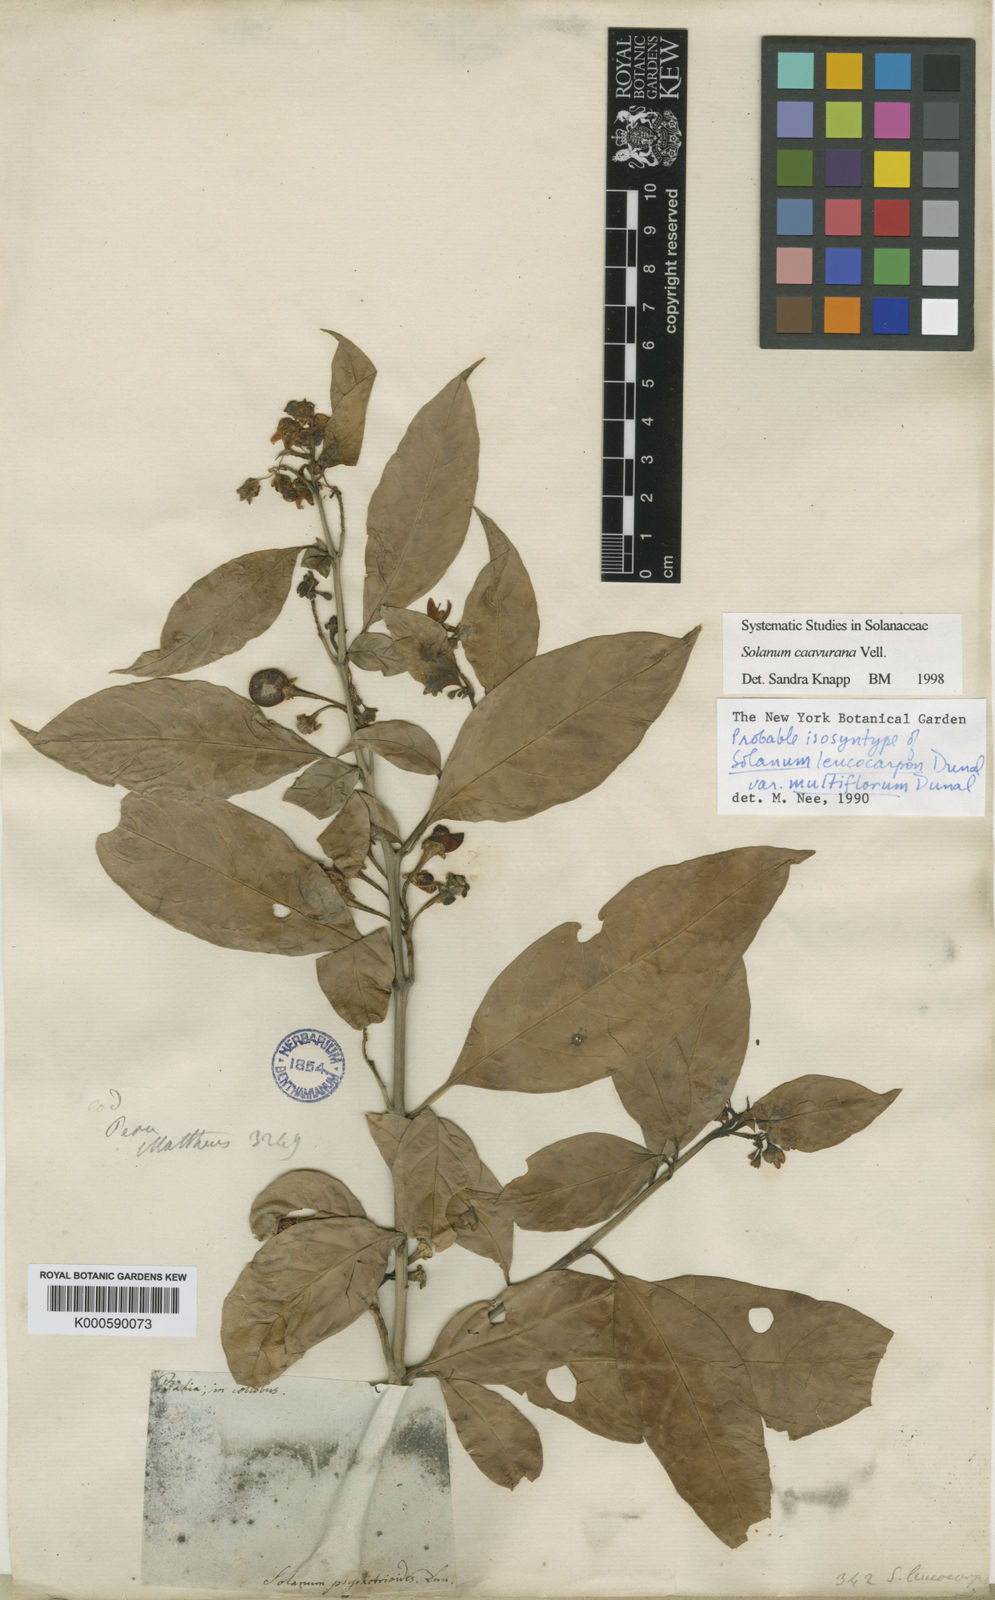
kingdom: Plantae
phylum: Tracheophyta
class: Magnoliopsida
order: Solanales
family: Solanaceae
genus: Solanum
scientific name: Solanum caavurana
